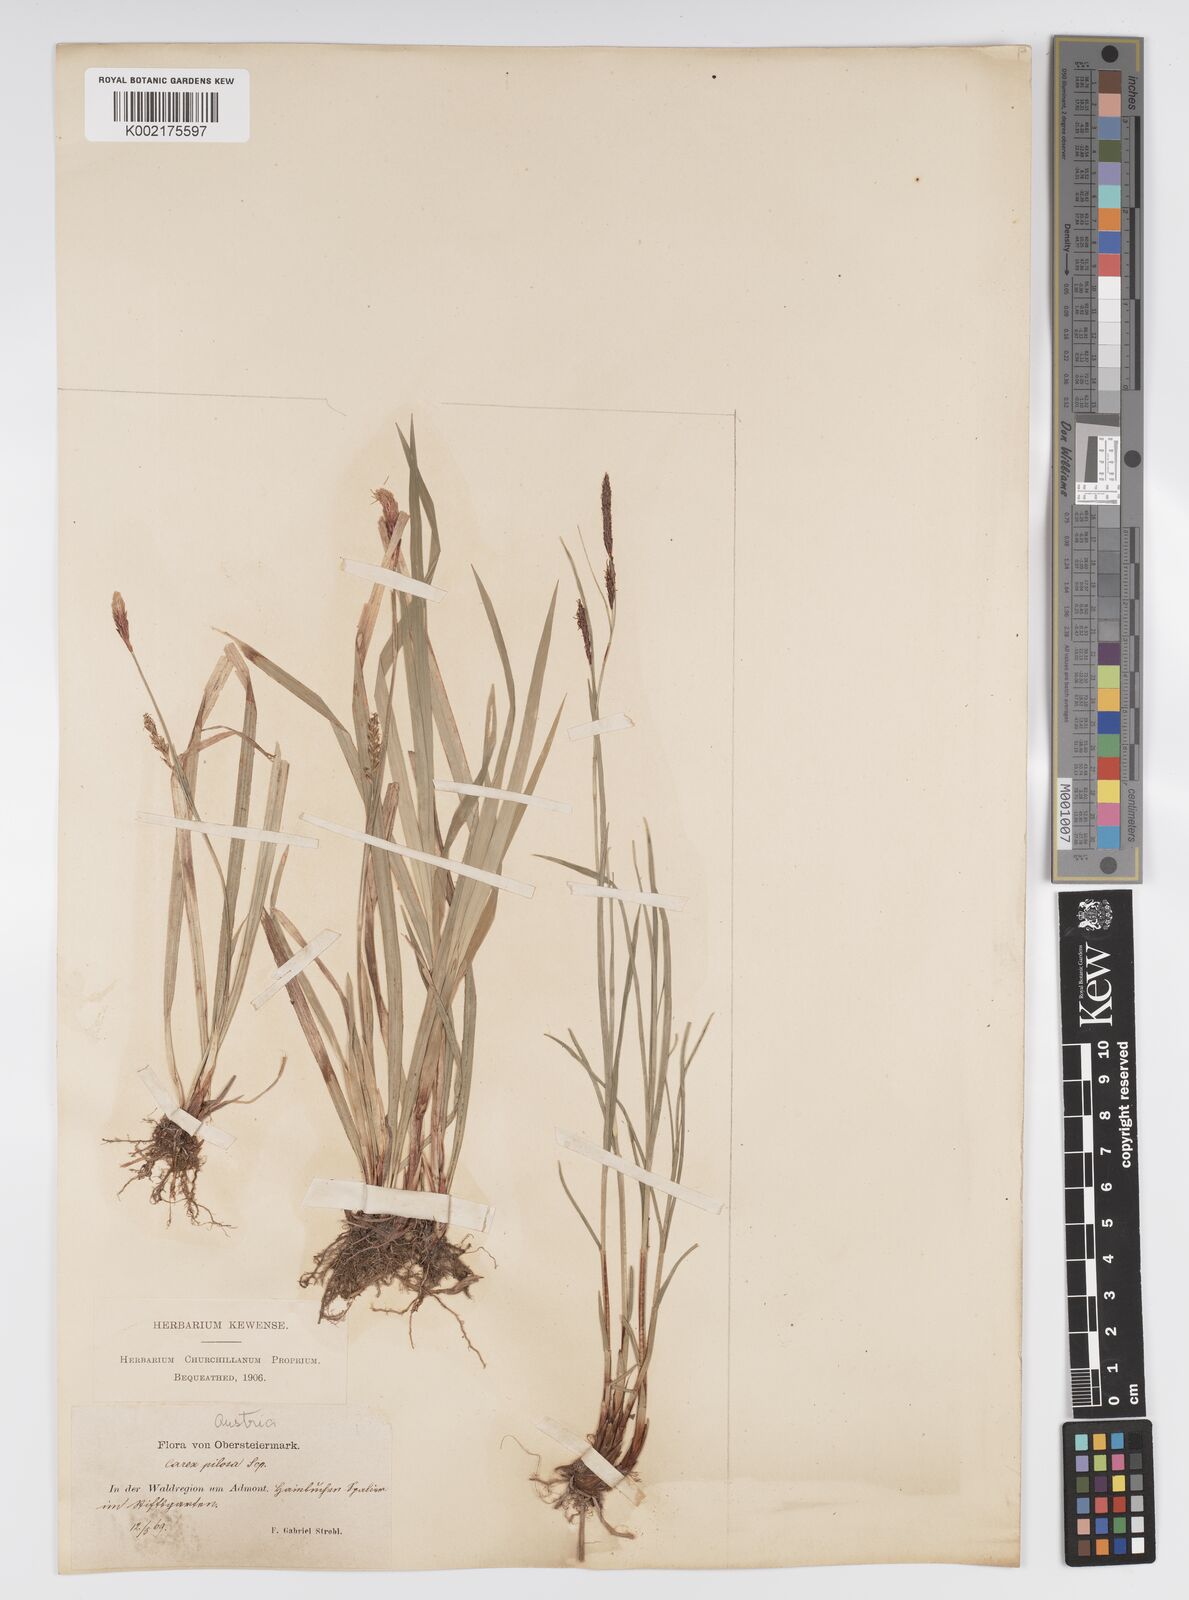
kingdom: Plantae
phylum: Tracheophyta
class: Liliopsida
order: Poales
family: Cyperaceae
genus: Carex
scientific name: Carex pilosa
